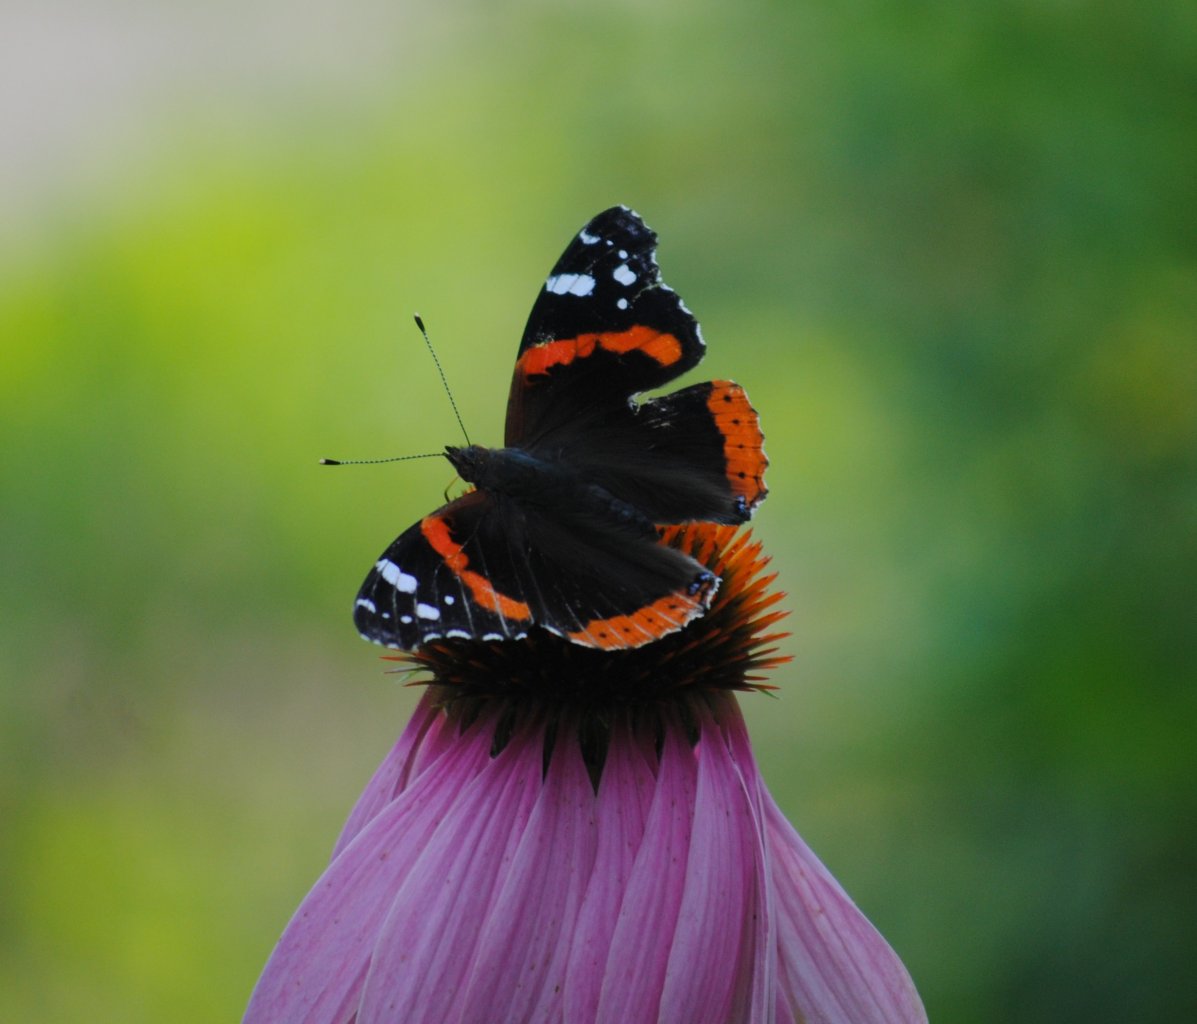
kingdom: Animalia
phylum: Arthropoda
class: Insecta
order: Lepidoptera
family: Nymphalidae
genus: Vanessa
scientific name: Vanessa atalanta
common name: Red Admiral
